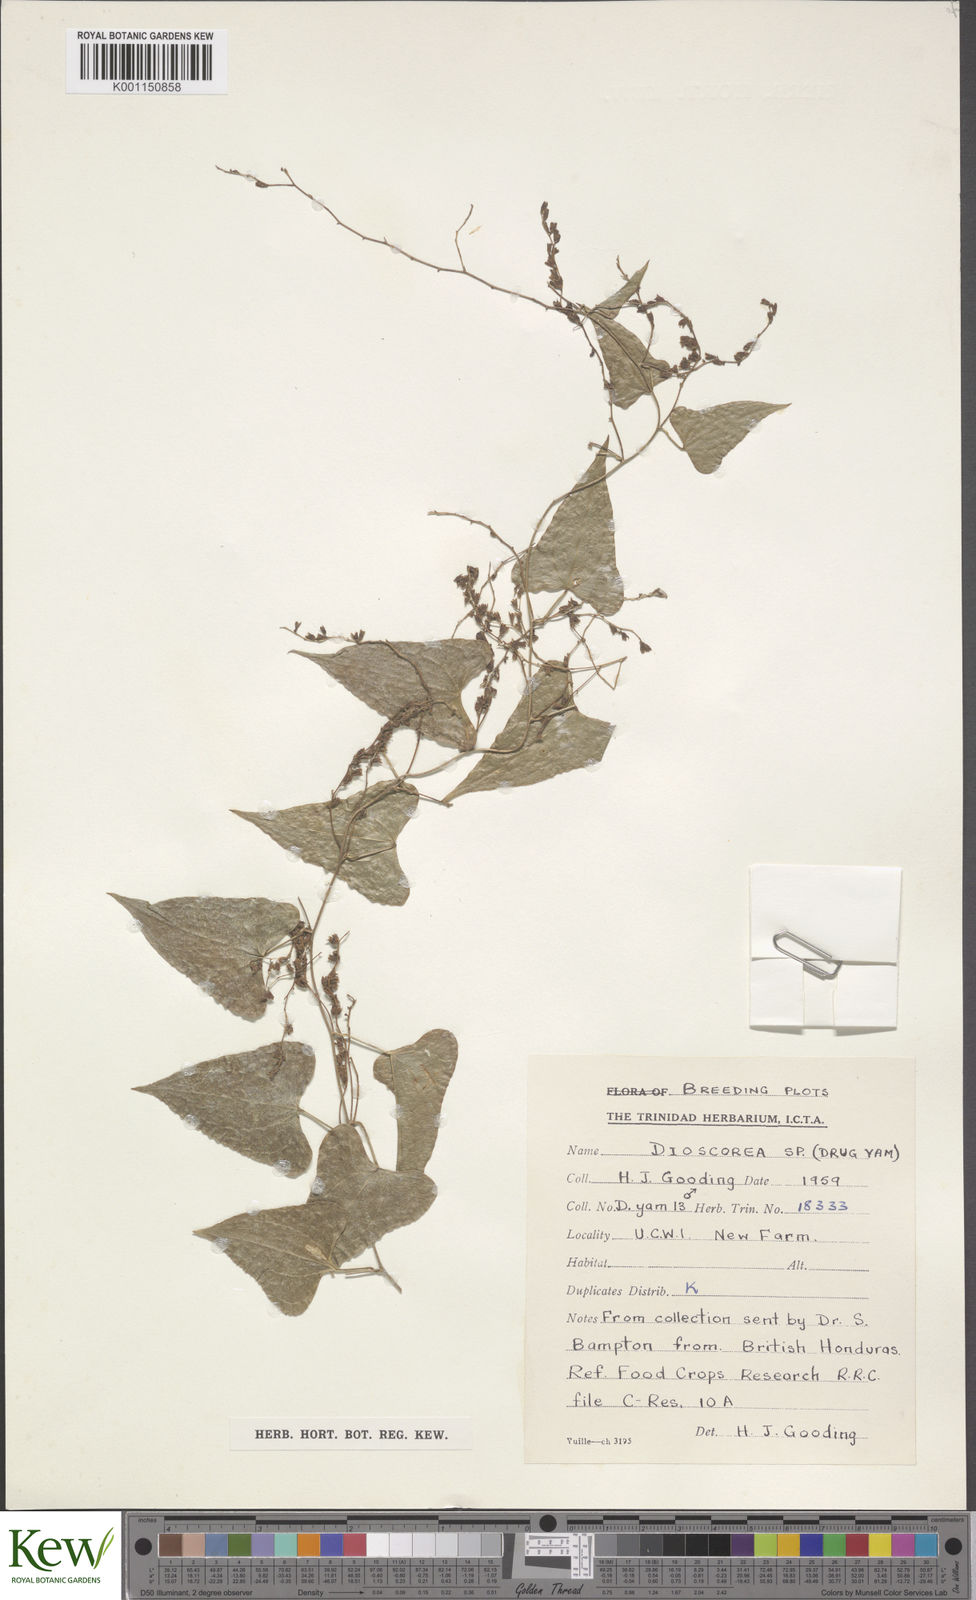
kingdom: Plantae
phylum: Tracheophyta
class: Liliopsida
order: Dioscoreales
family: Dioscoreaceae
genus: Dioscorea
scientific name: Dioscorea
